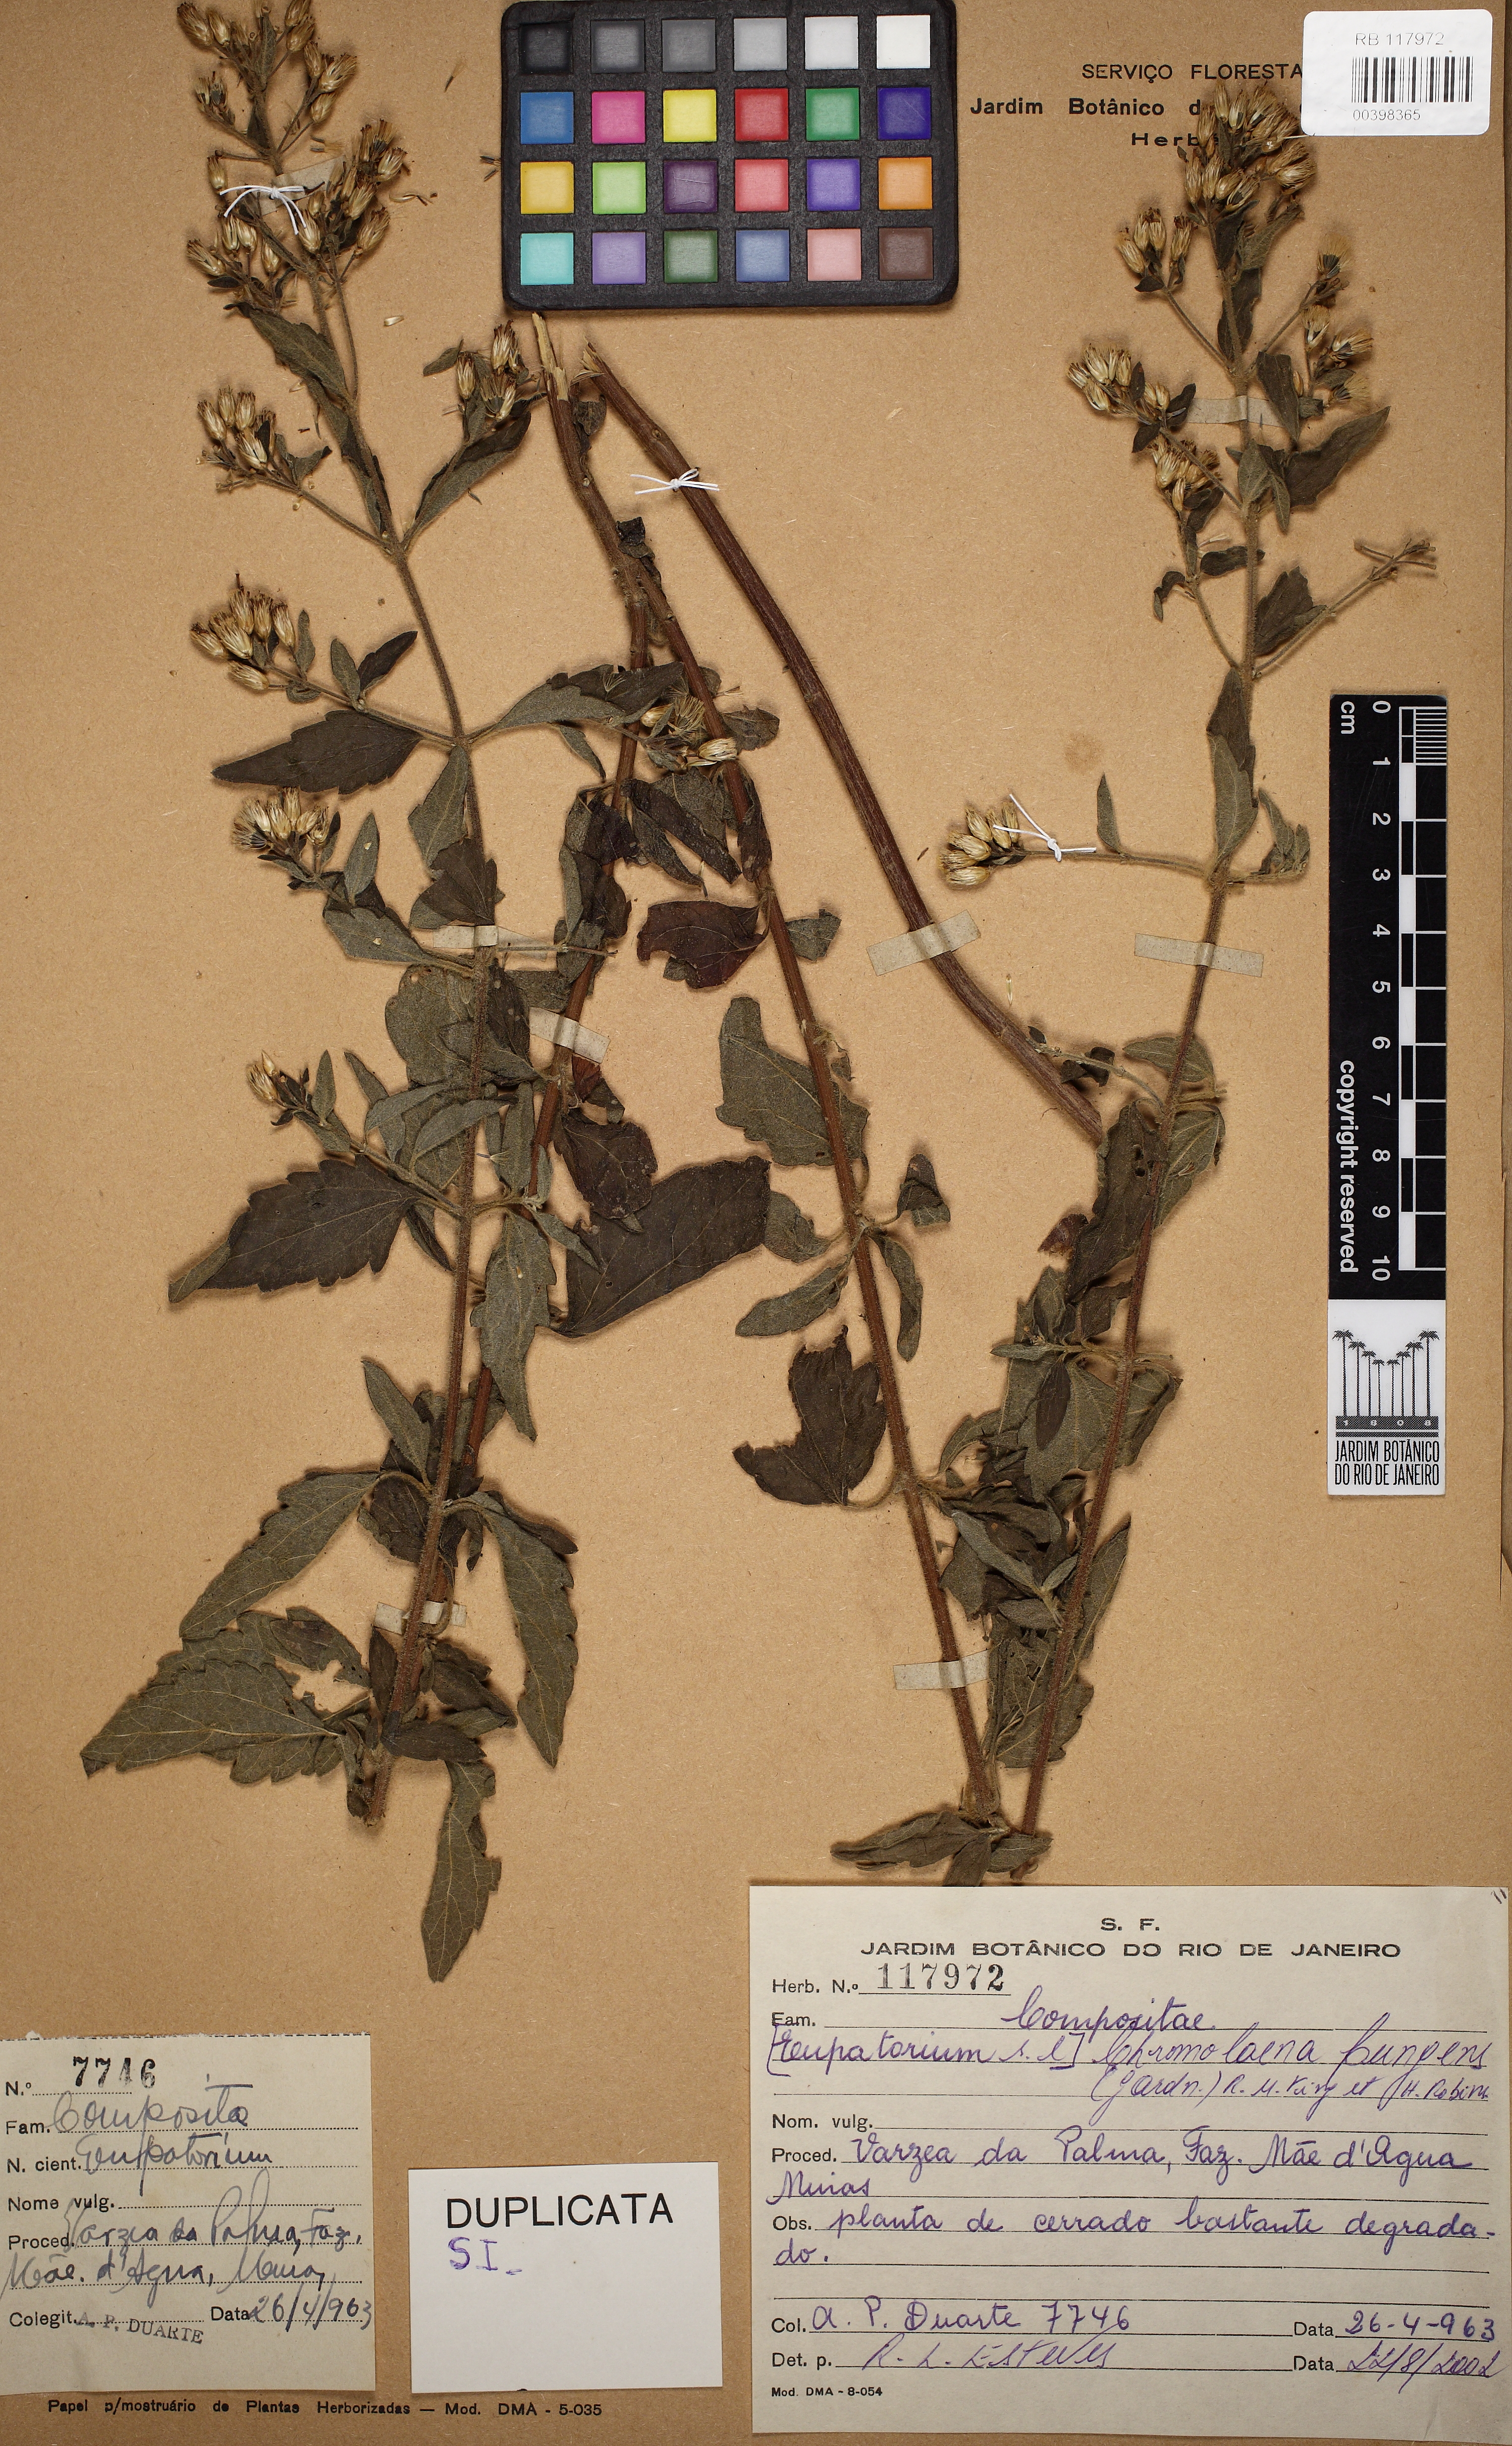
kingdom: Plantae
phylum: Tracheophyta
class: Magnoliopsida
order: Asterales
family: Asteraceae
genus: Chromolaena
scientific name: Chromolaena pungens
